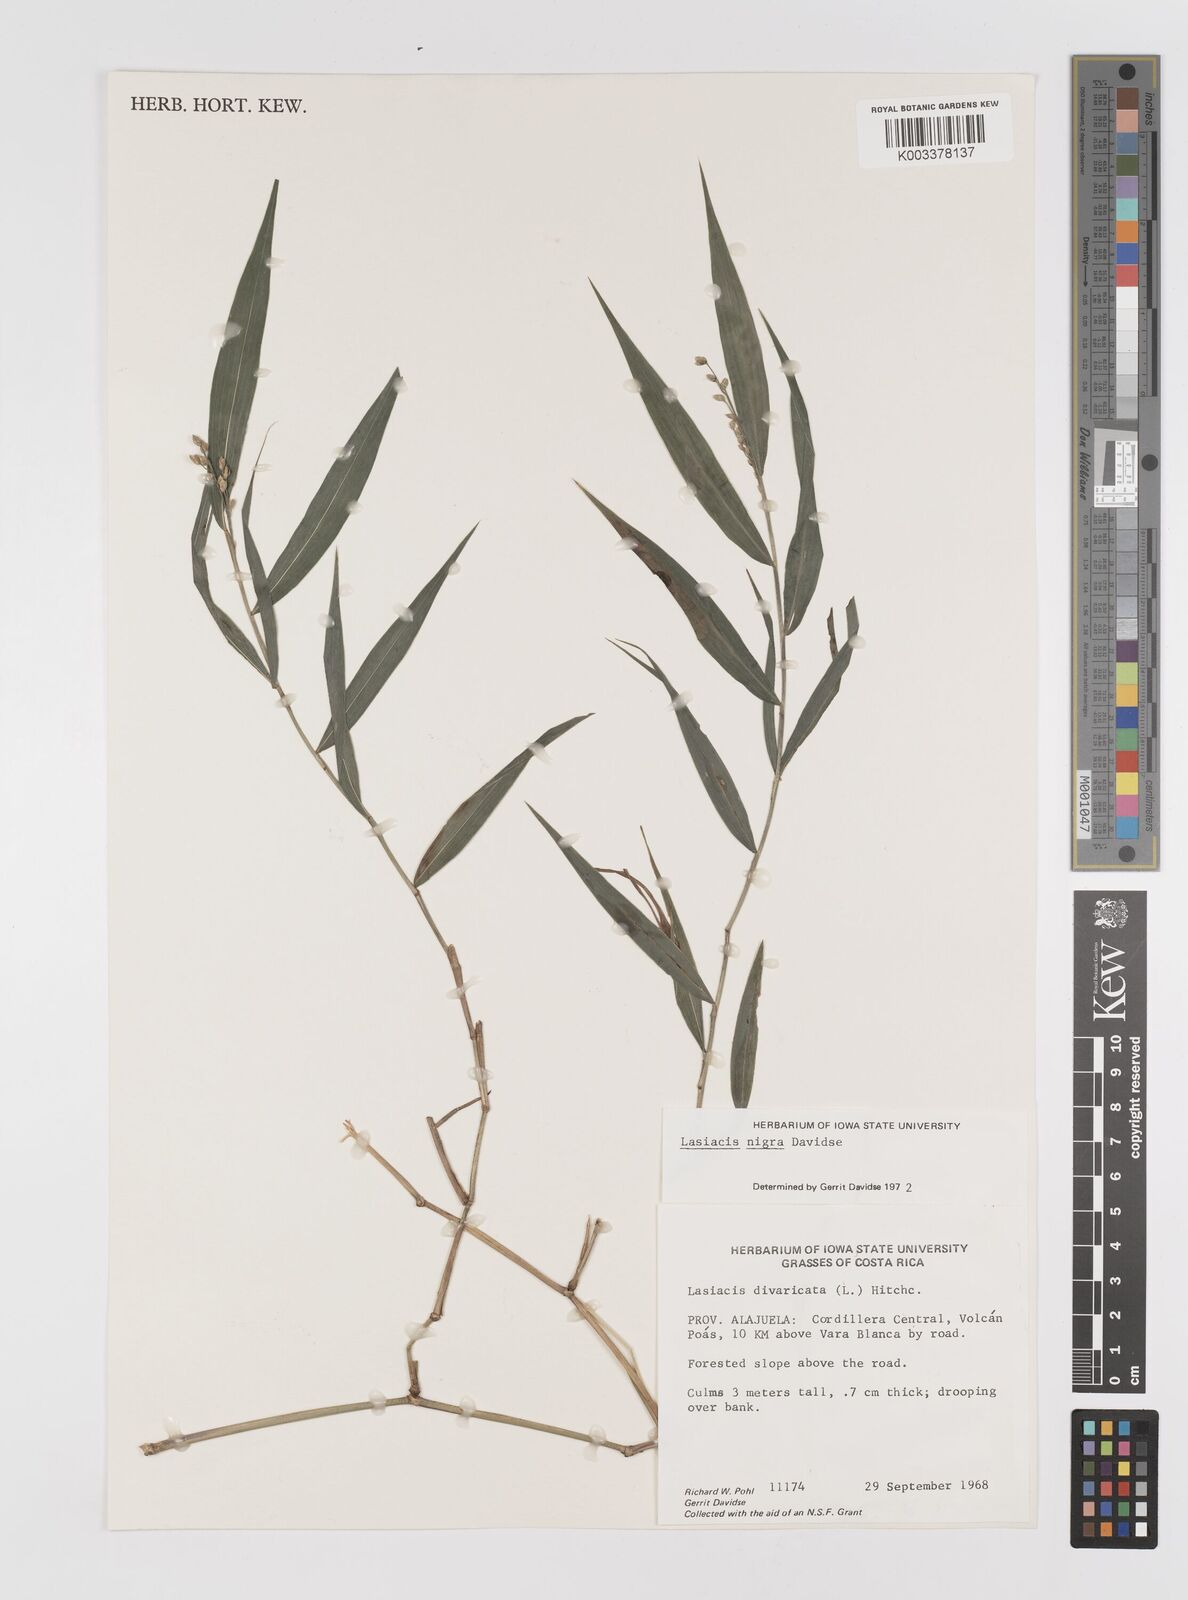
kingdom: Plantae
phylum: Tracheophyta
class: Liliopsida
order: Poales
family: Poaceae
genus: Lasiacis
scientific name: Lasiacis nigra
